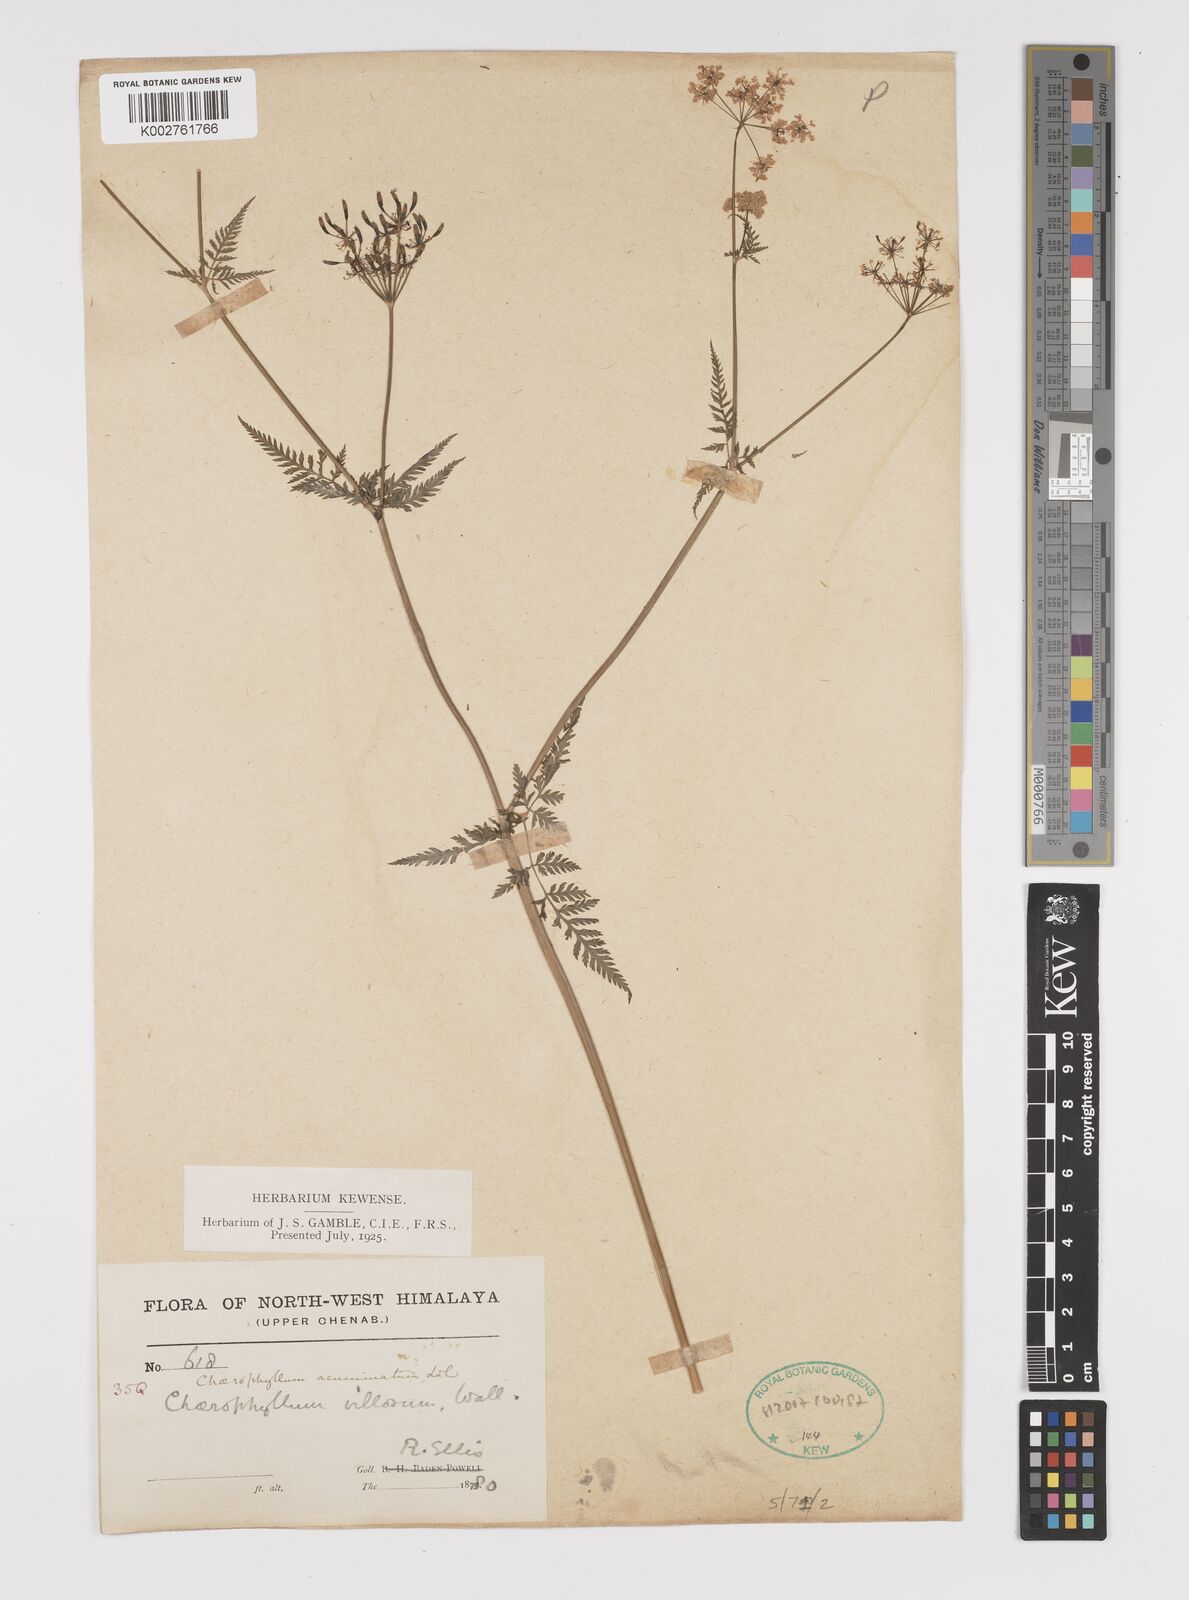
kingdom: Plantae
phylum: Tracheophyta
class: Magnoliopsida
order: Apiales
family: Apiaceae
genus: Chaerophyllum
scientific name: Chaerophyllum reflexum
